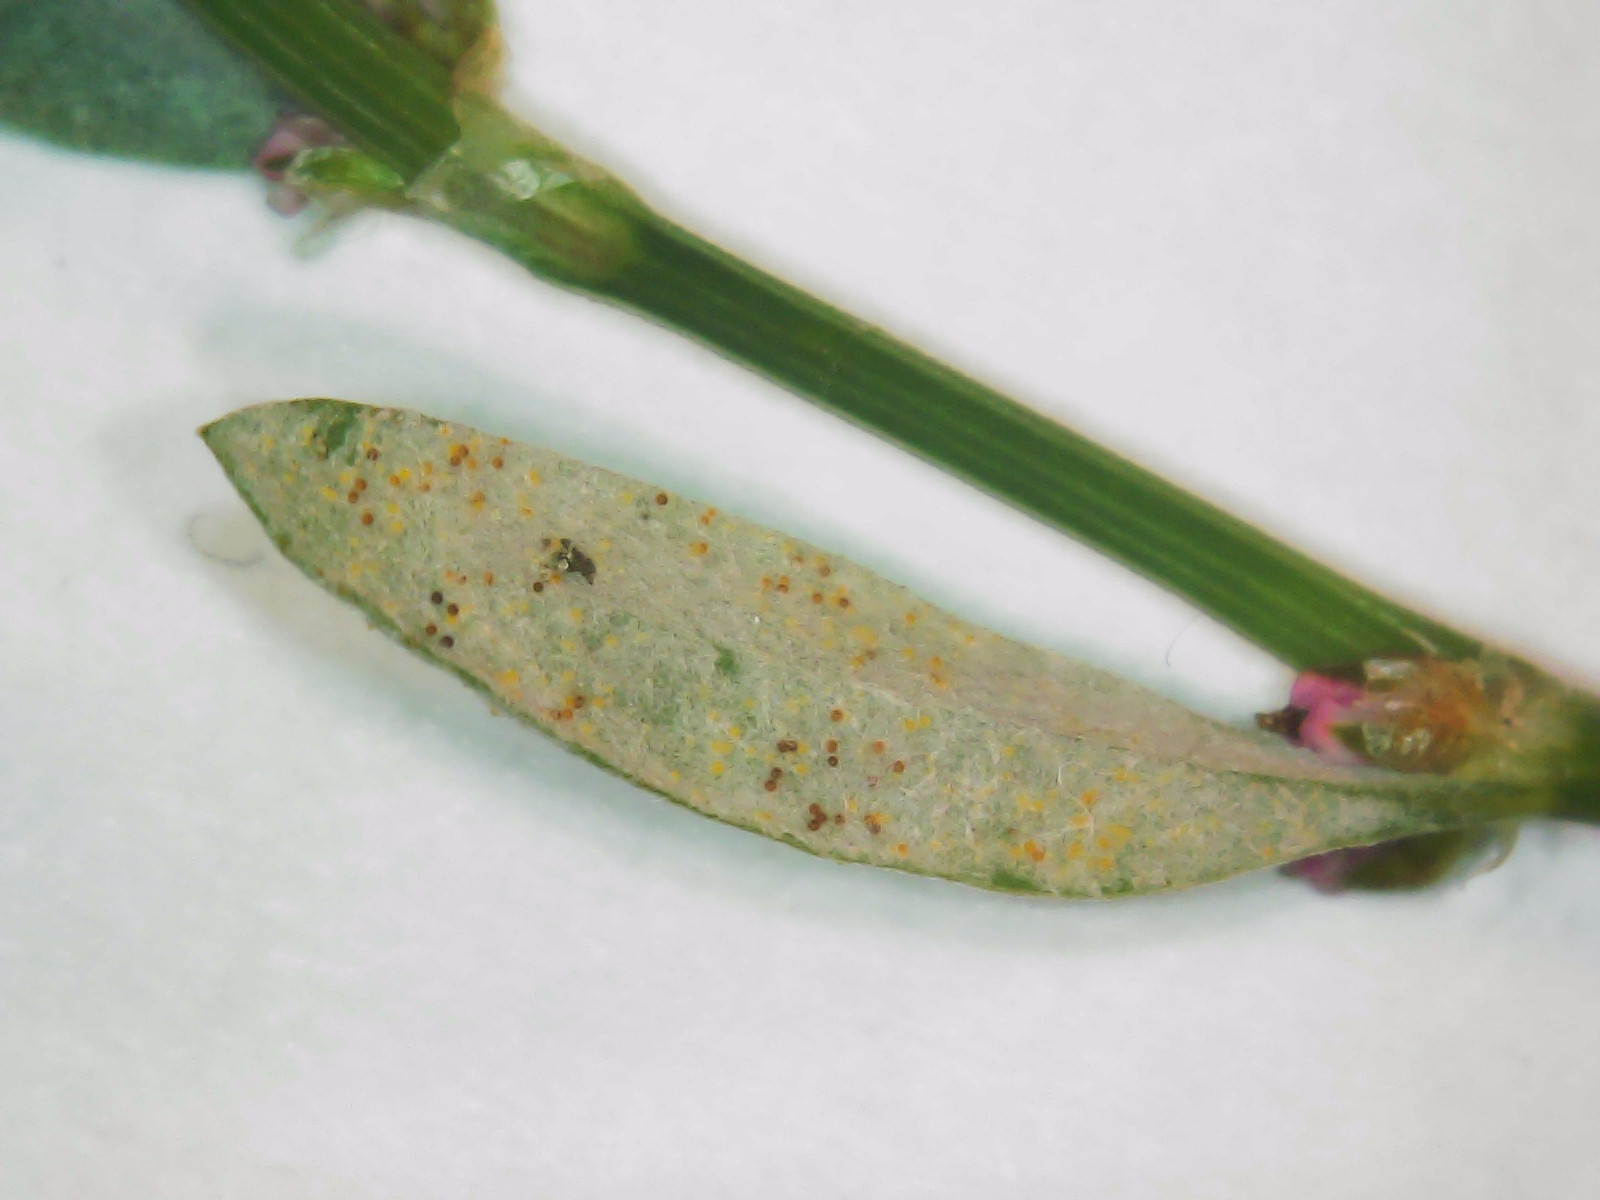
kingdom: Fungi
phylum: Ascomycota
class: Leotiomycetes
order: Helotiales
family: Erysiphaceae
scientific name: Erysiphaceae
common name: meldugfamilien
